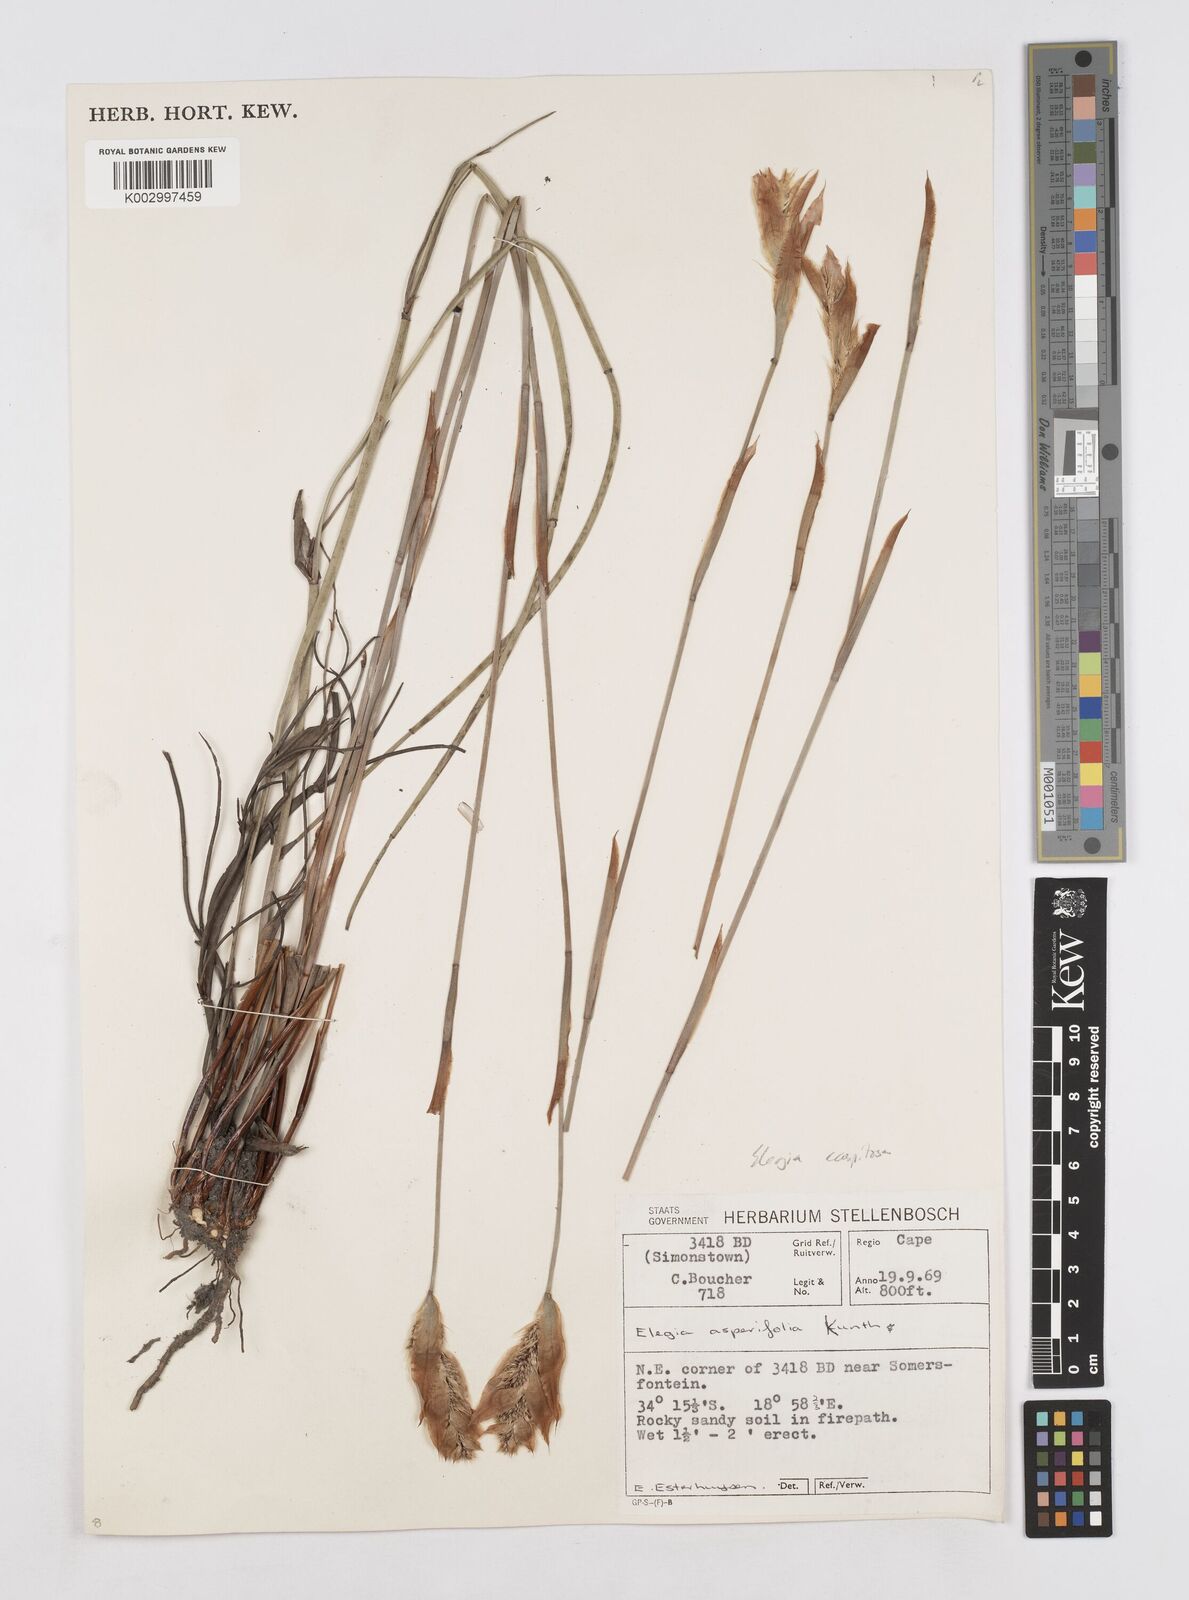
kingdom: Plantae
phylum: Tracheophyta
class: Liliopsida
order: Poales
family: Restionaceae
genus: Elegia
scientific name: Elegia asperiflora
